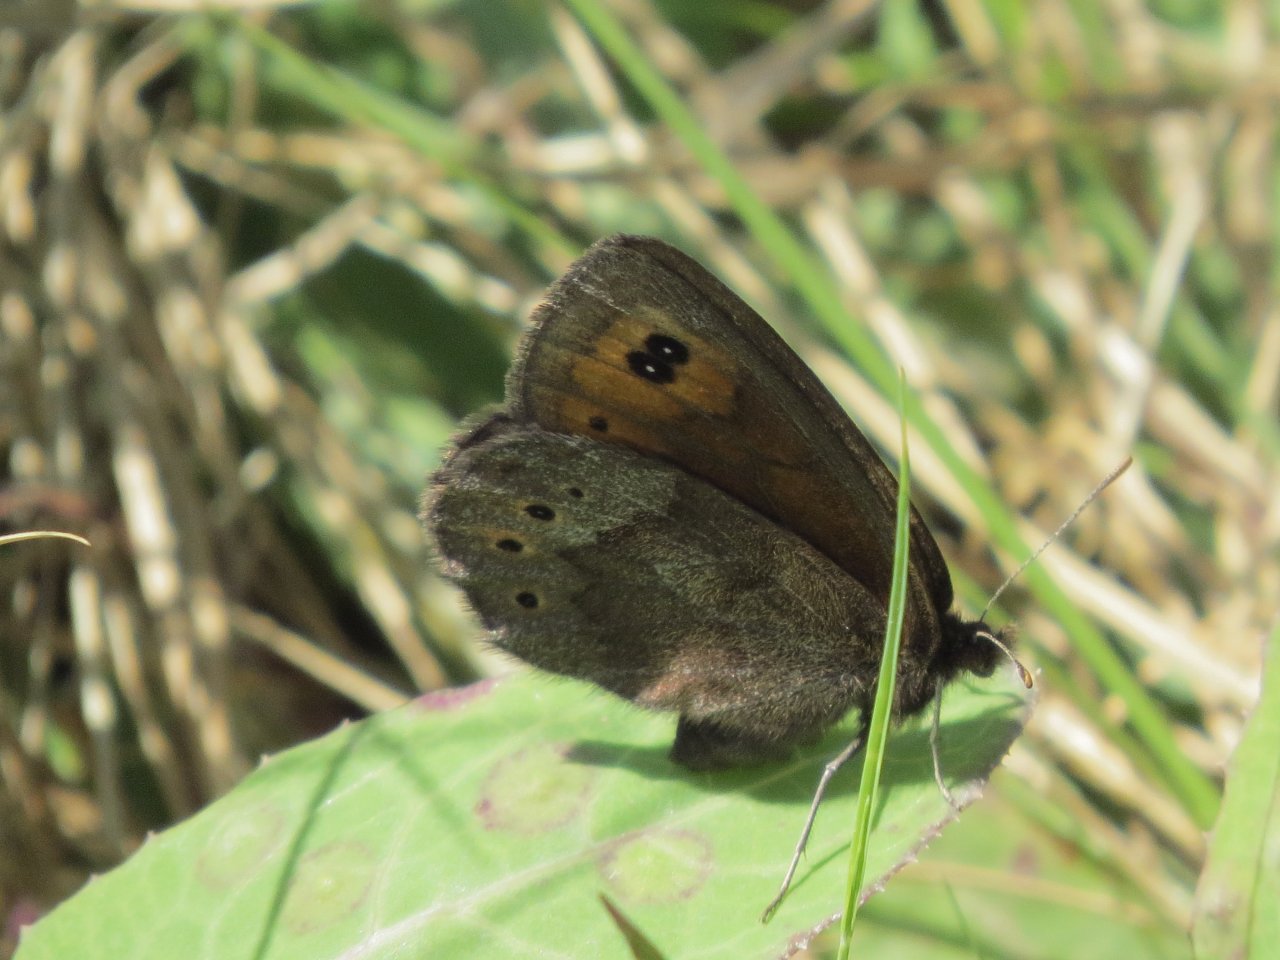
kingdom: Animalia
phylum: Arthropoda
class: Insecta
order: Lepidoptera
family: Nymphalidae
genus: Erebia
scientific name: Erebia epipsodea
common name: Common Alpine
